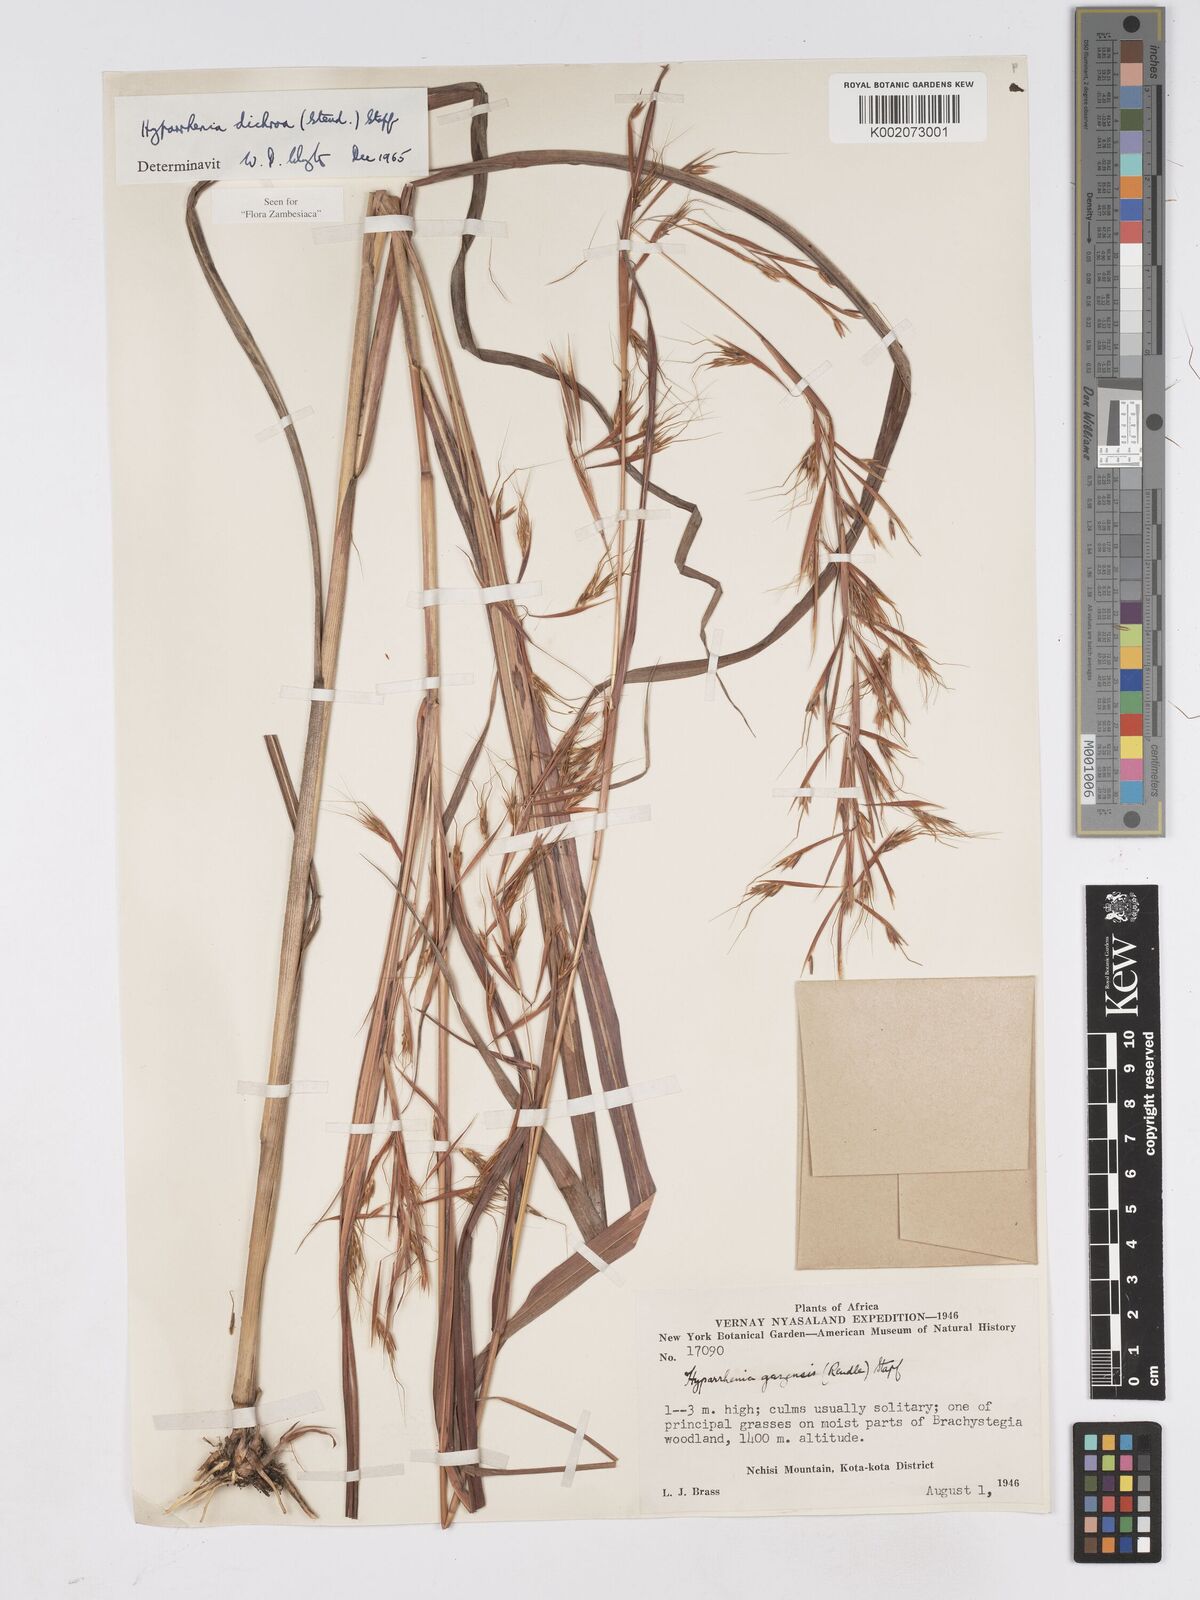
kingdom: Plantae
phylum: Tracheophyta
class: Liliopsida
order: Poales
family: Poaceae
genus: Hyparrhenia
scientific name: Hyparrhenia dichroa
